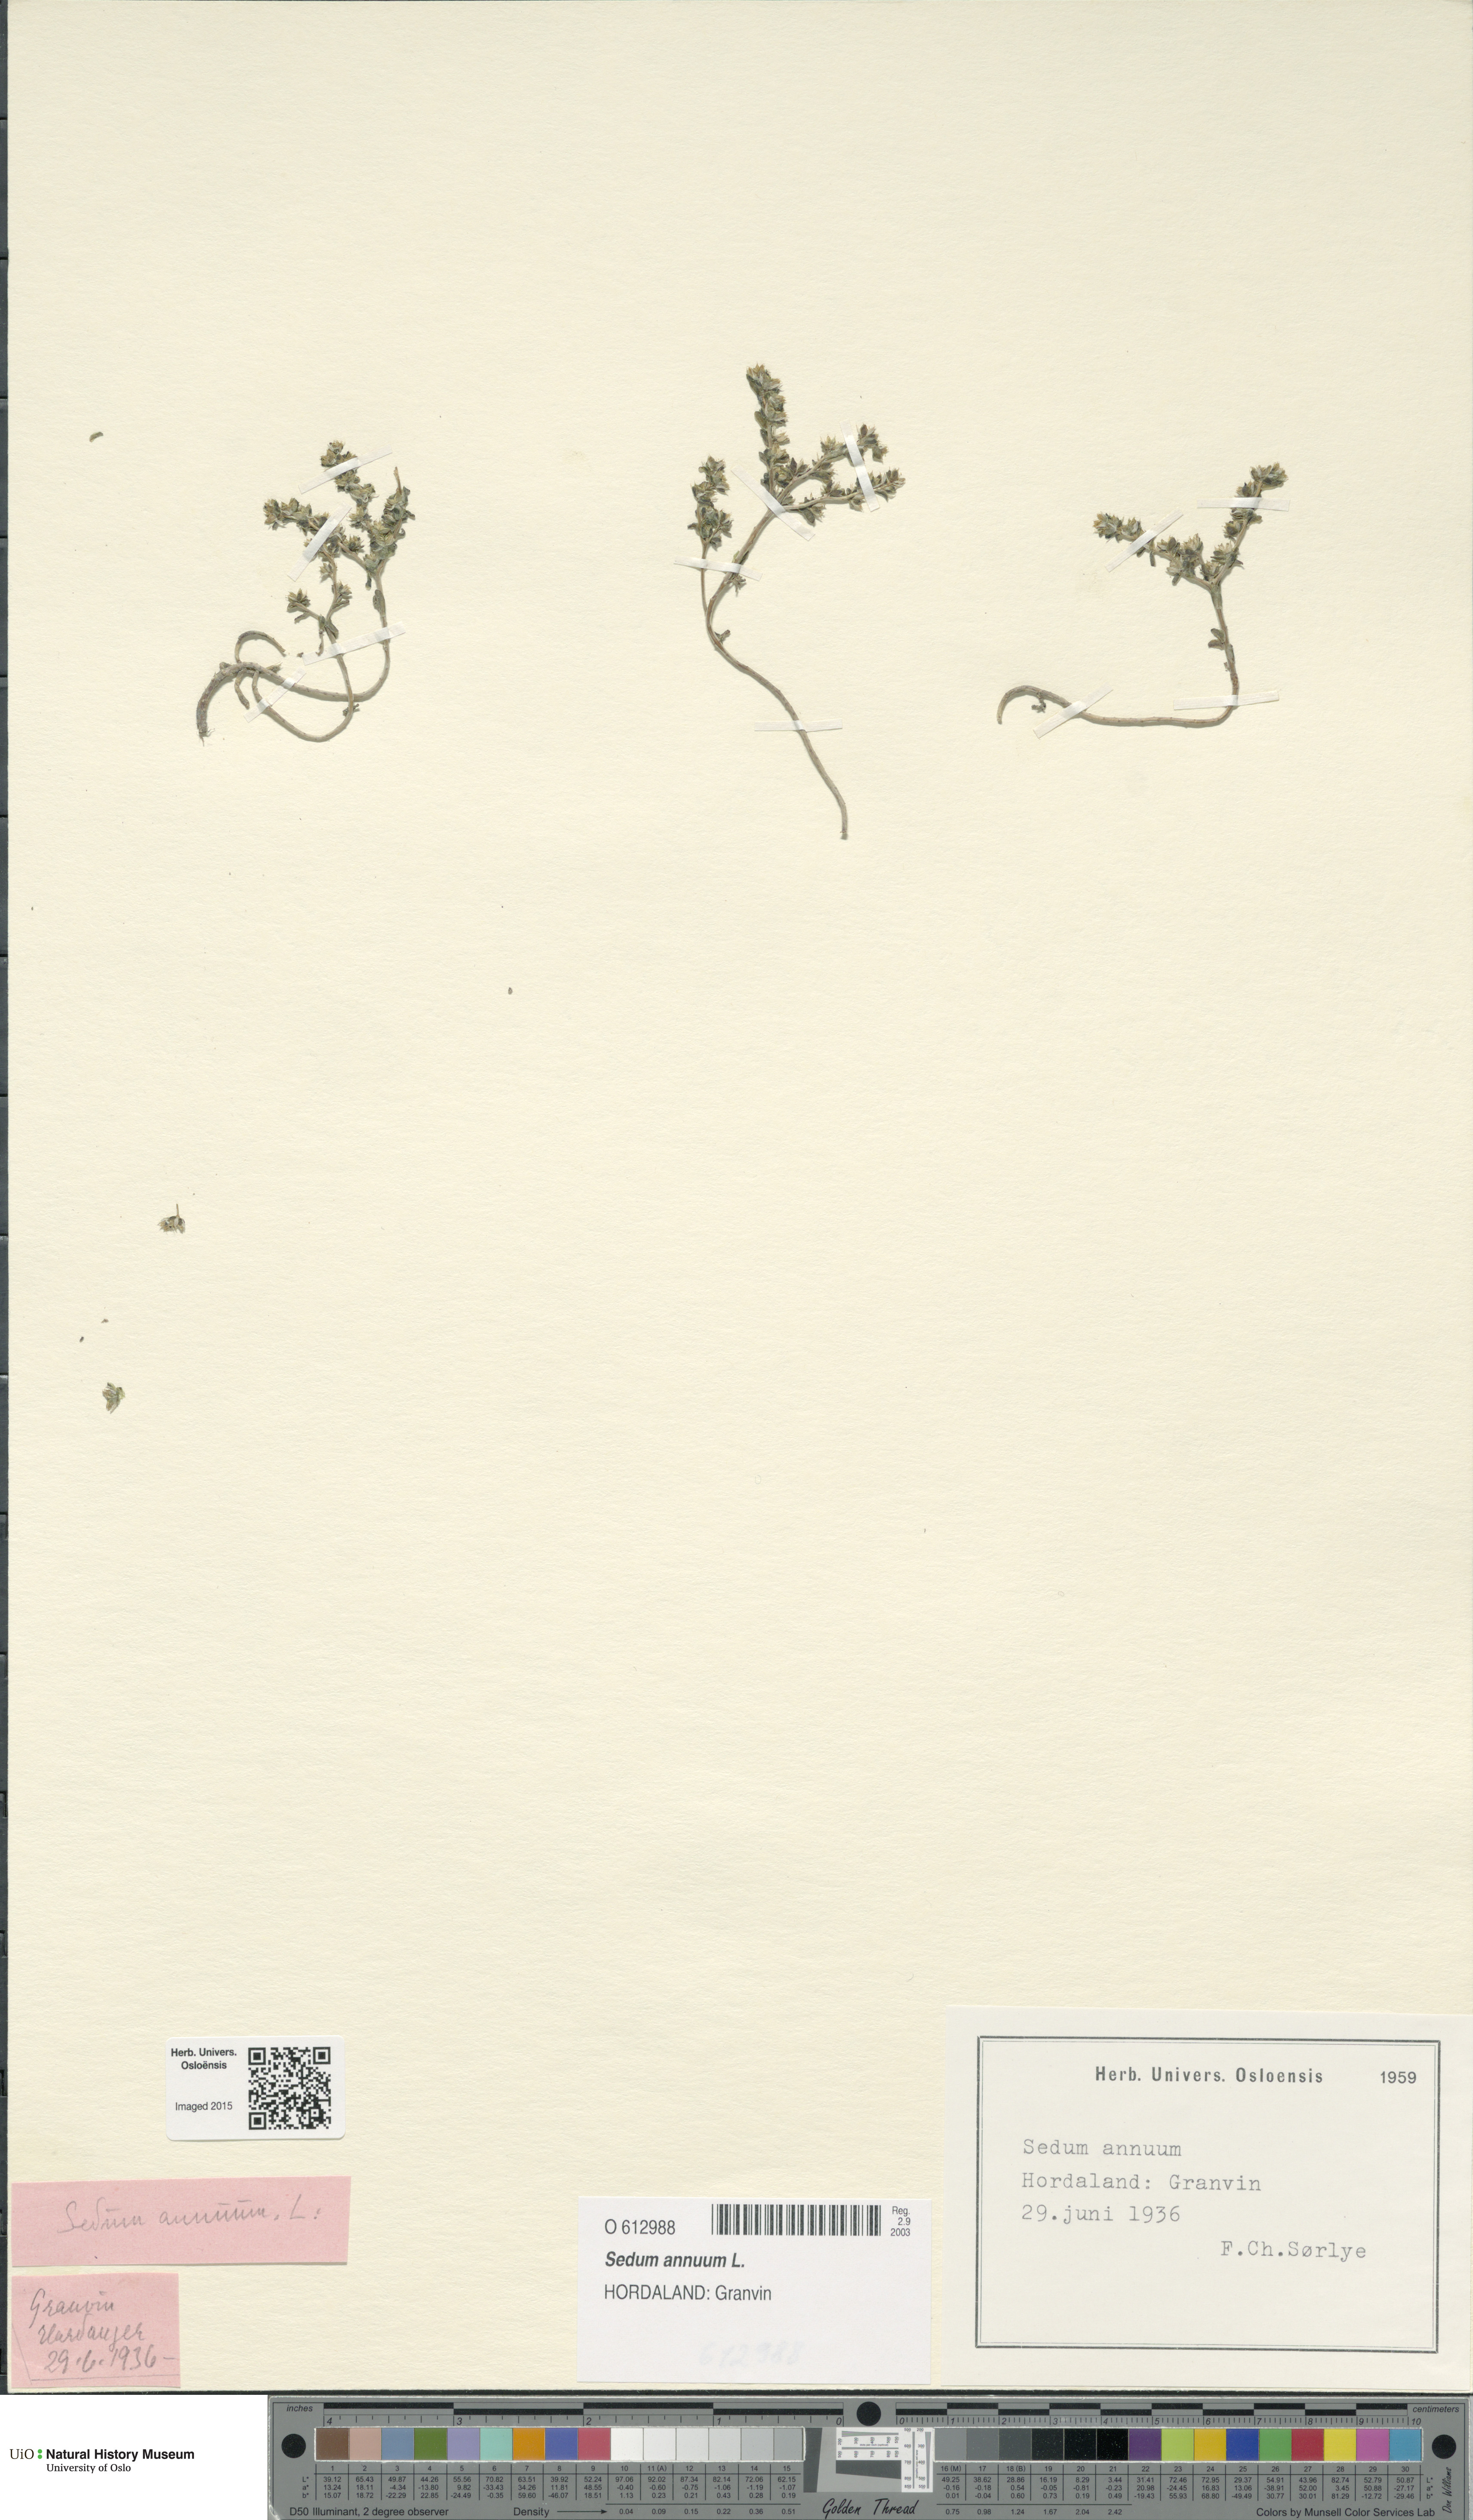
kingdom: Plantae
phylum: Tracheophyta
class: Magnoliopsida
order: Saxifragales
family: Crassulaceae
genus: Sedum
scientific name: Sedum annuum
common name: Annual stonecrop
